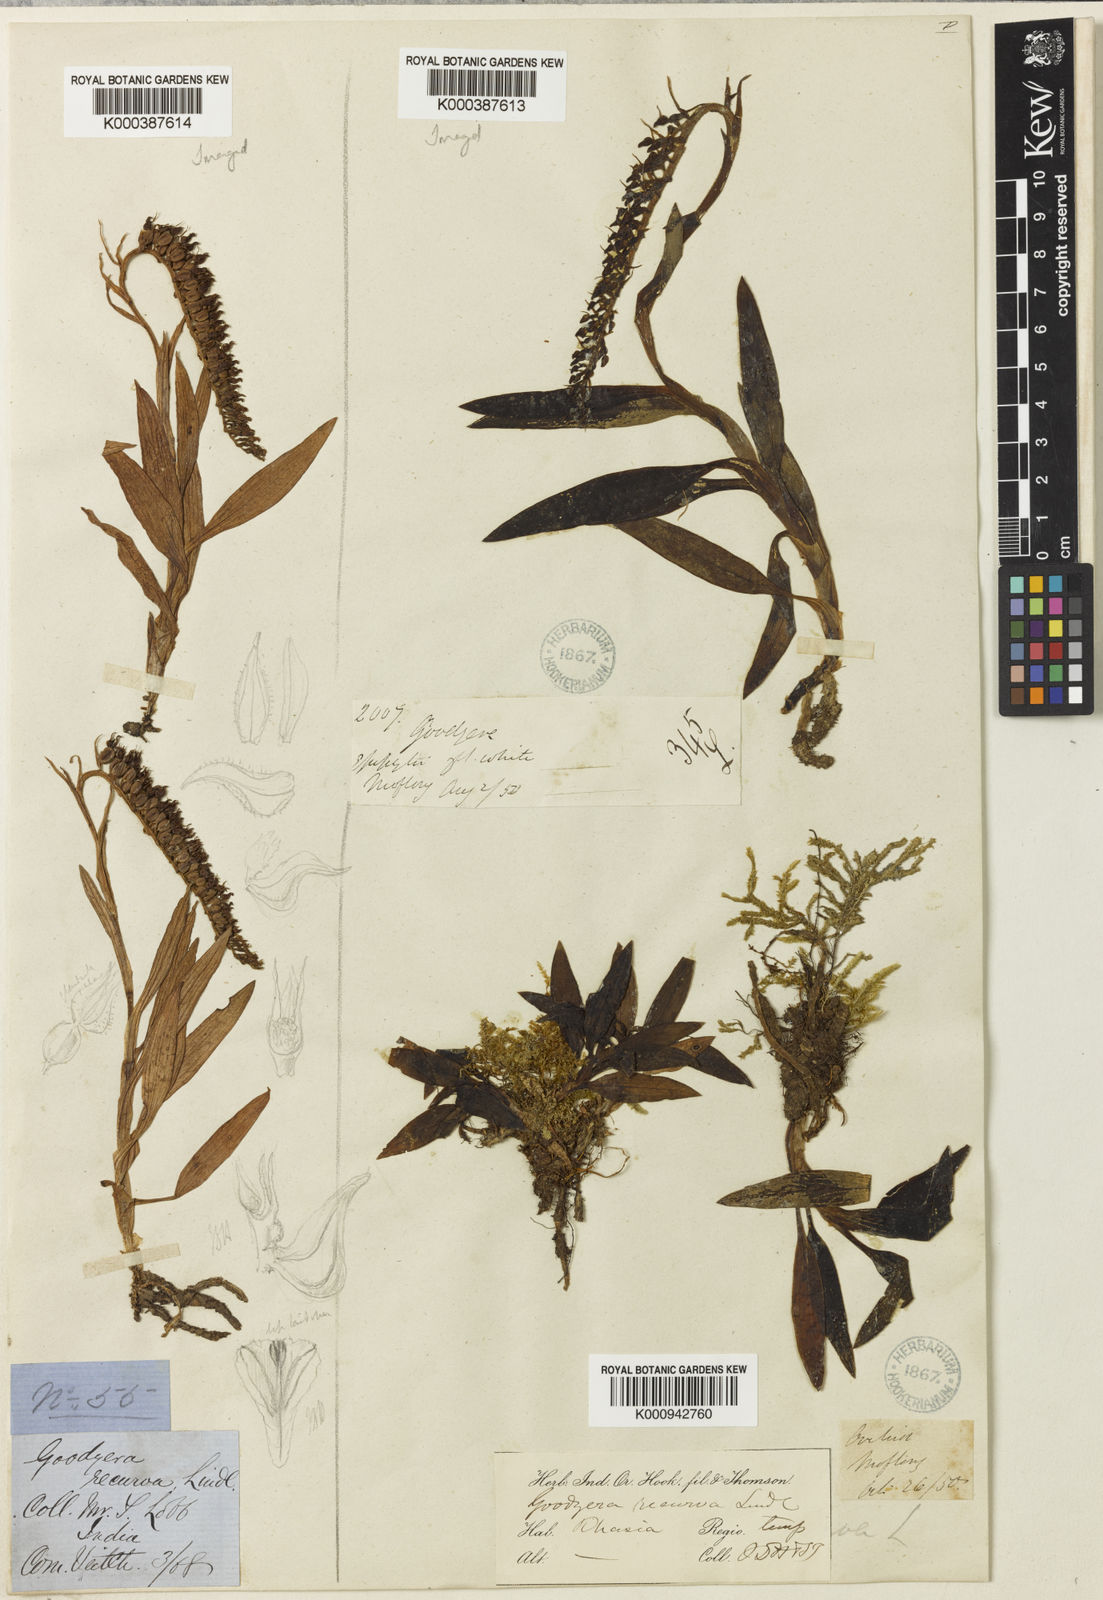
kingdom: Plantae
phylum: Tracheophyta
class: Liliopsida
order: Asparagales
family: Orchidaceae
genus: Goodyera
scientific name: Goodyera recurva
